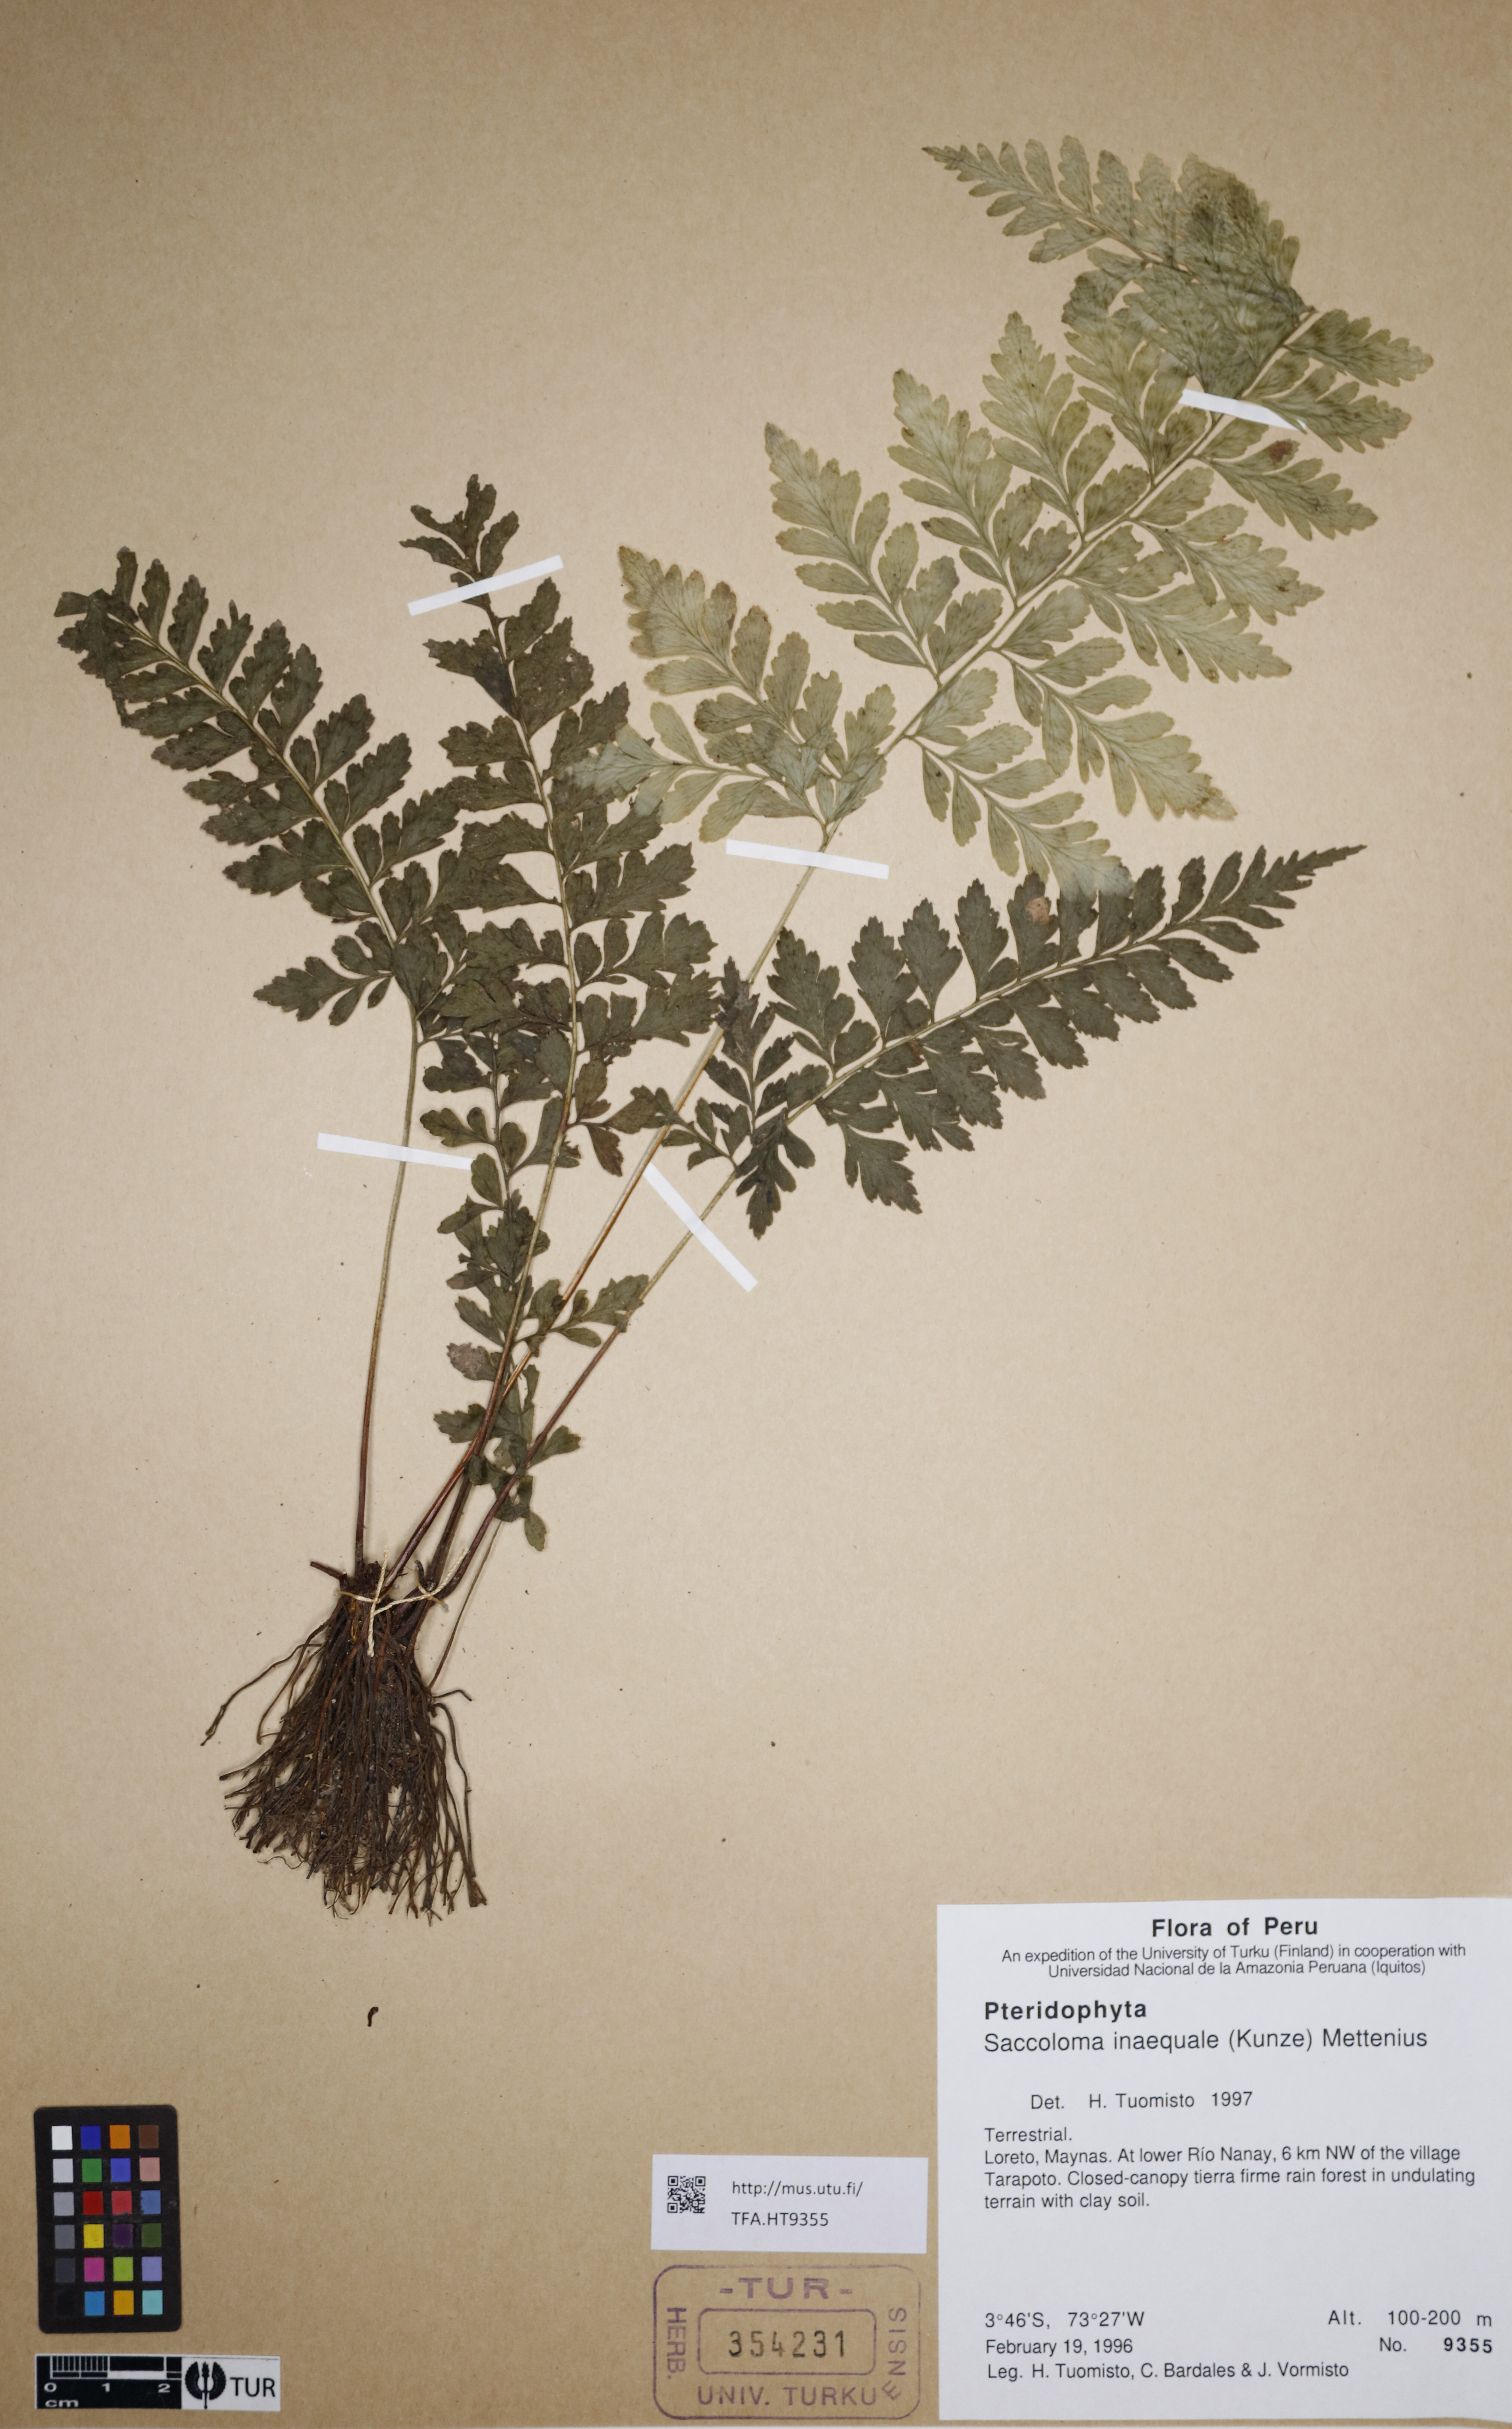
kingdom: Plantae
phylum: Tracheophyta
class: Polypodiopsida
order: Polypodiales
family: Saccolomataceae
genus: Saccoloma
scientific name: Saccoloma inaequale
